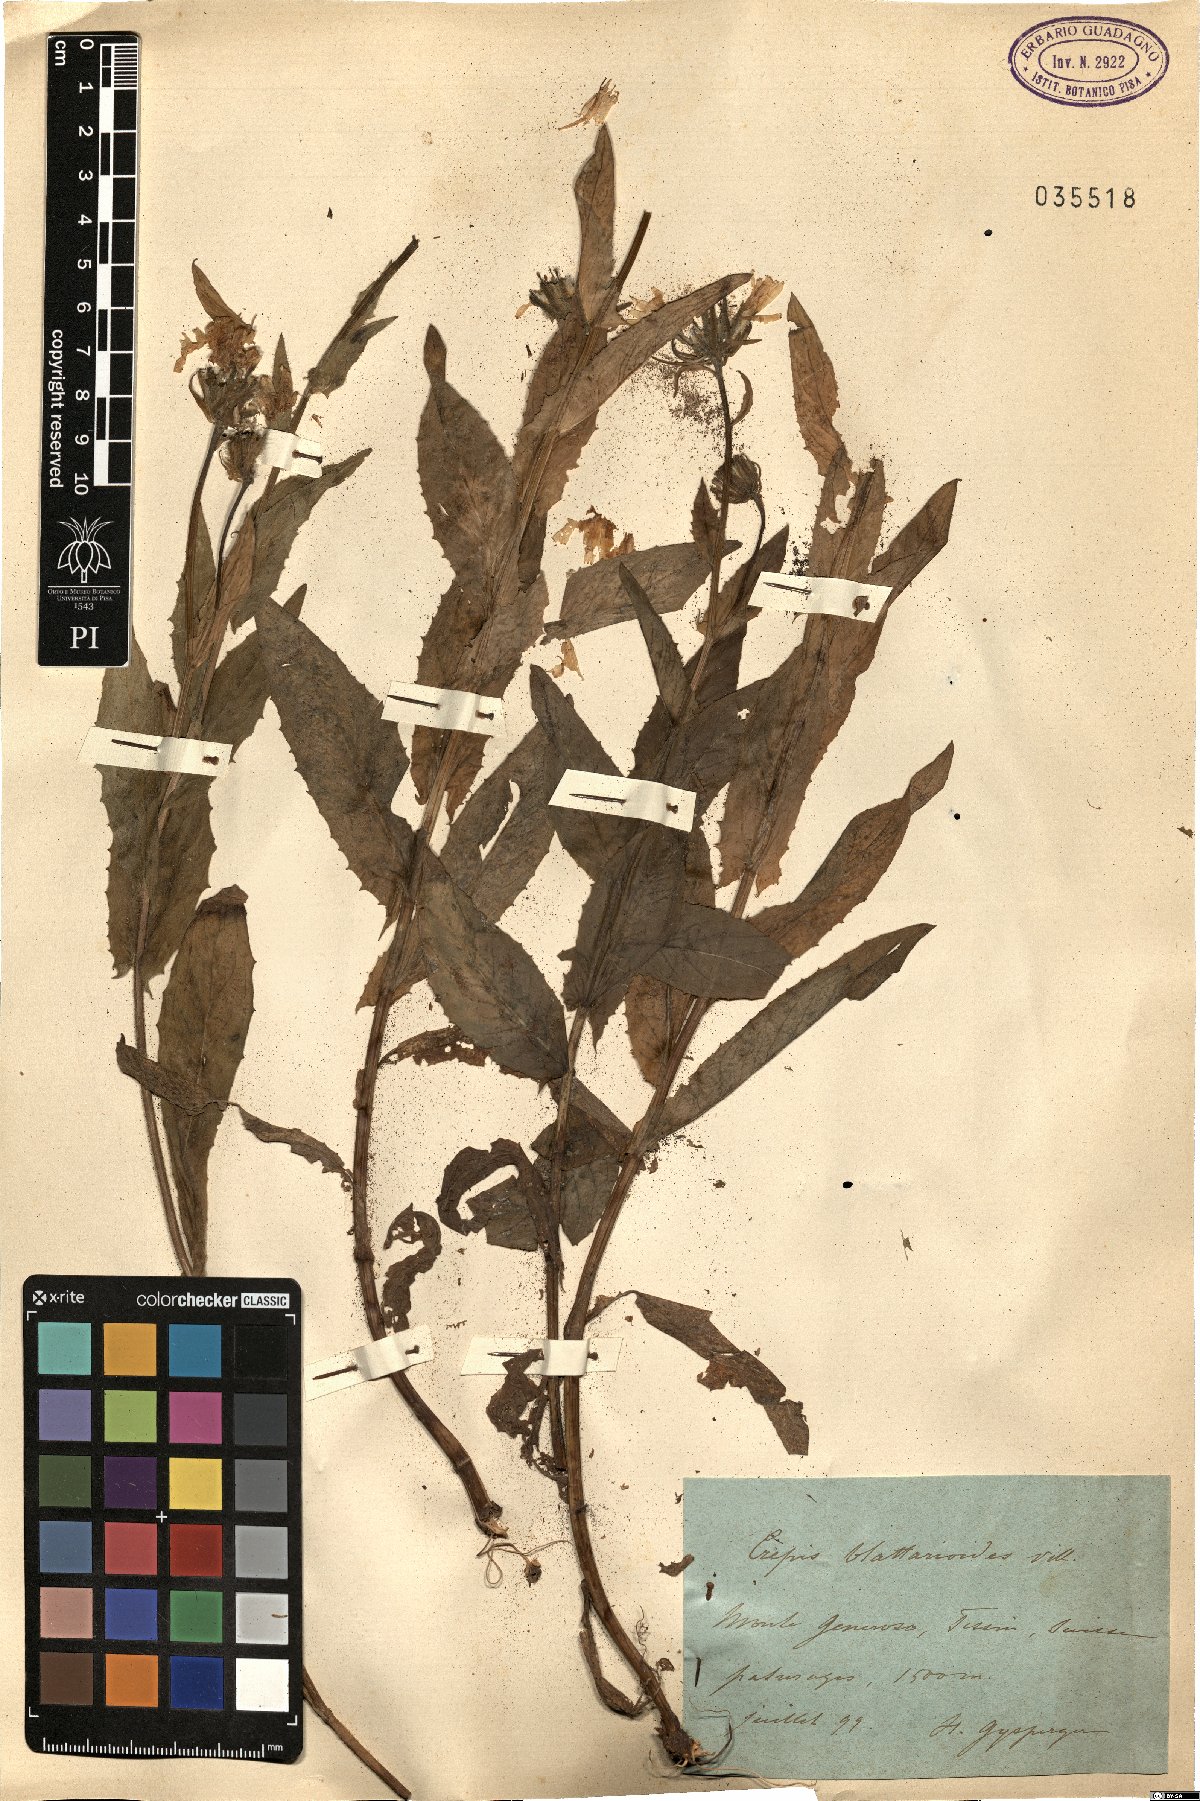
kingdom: Plantae
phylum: Tracheophyta
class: Magnoliopsida
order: Asterales
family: Asteraceae
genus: Crepis
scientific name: Crepis blattarioides
